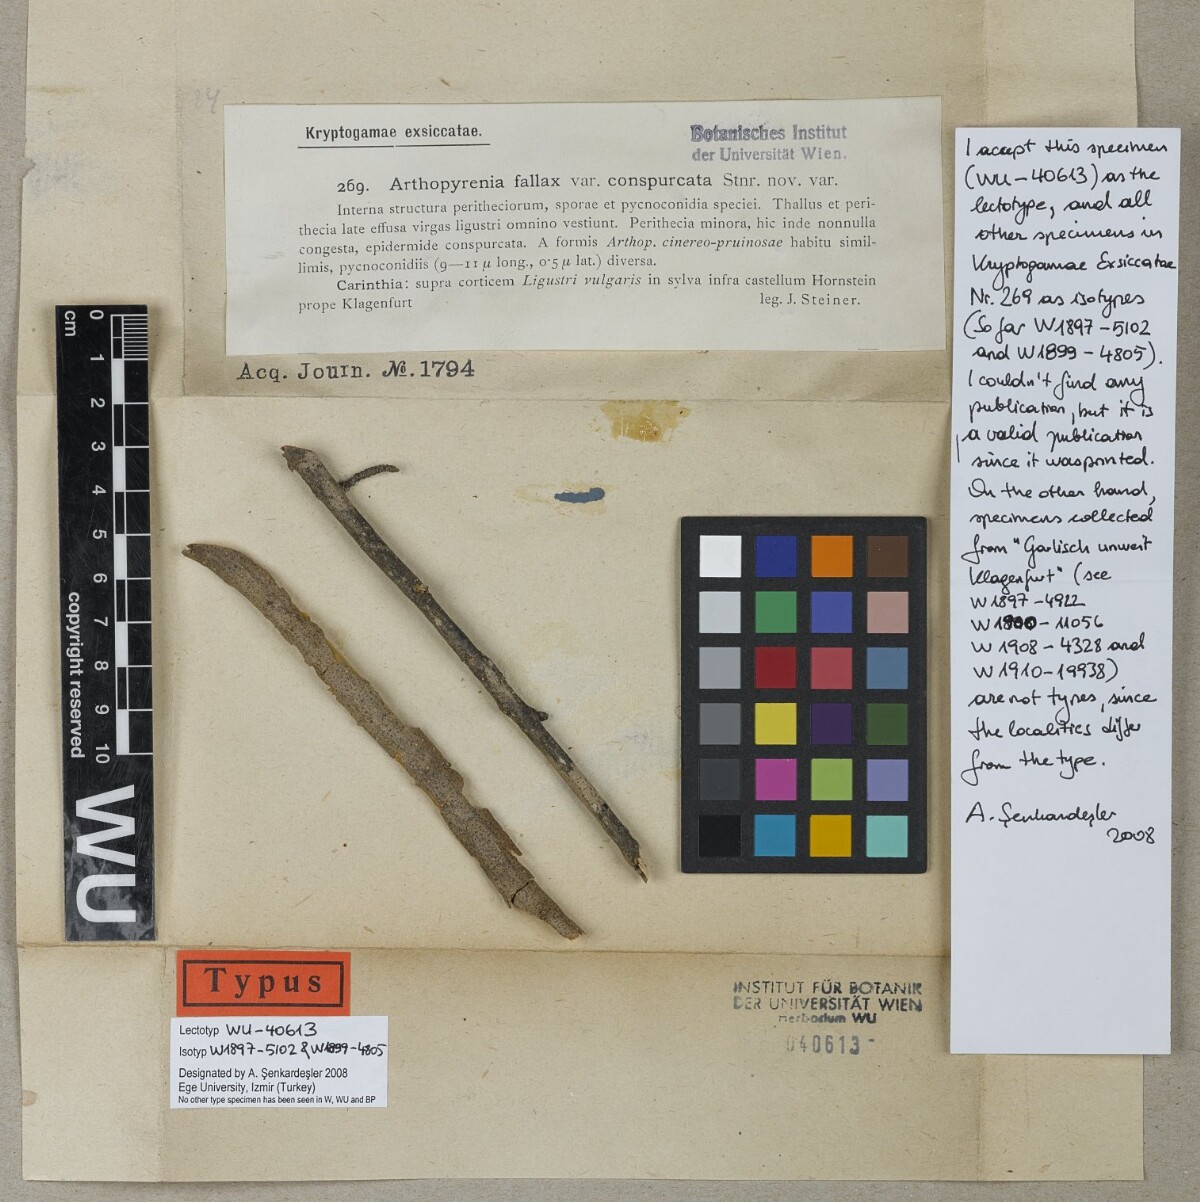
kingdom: Fungi
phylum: Ascomycota
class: Lecanoromycetes
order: Ostropales
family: Porinaceae
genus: Pseudosagedia
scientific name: Pseudosagedia fallax
